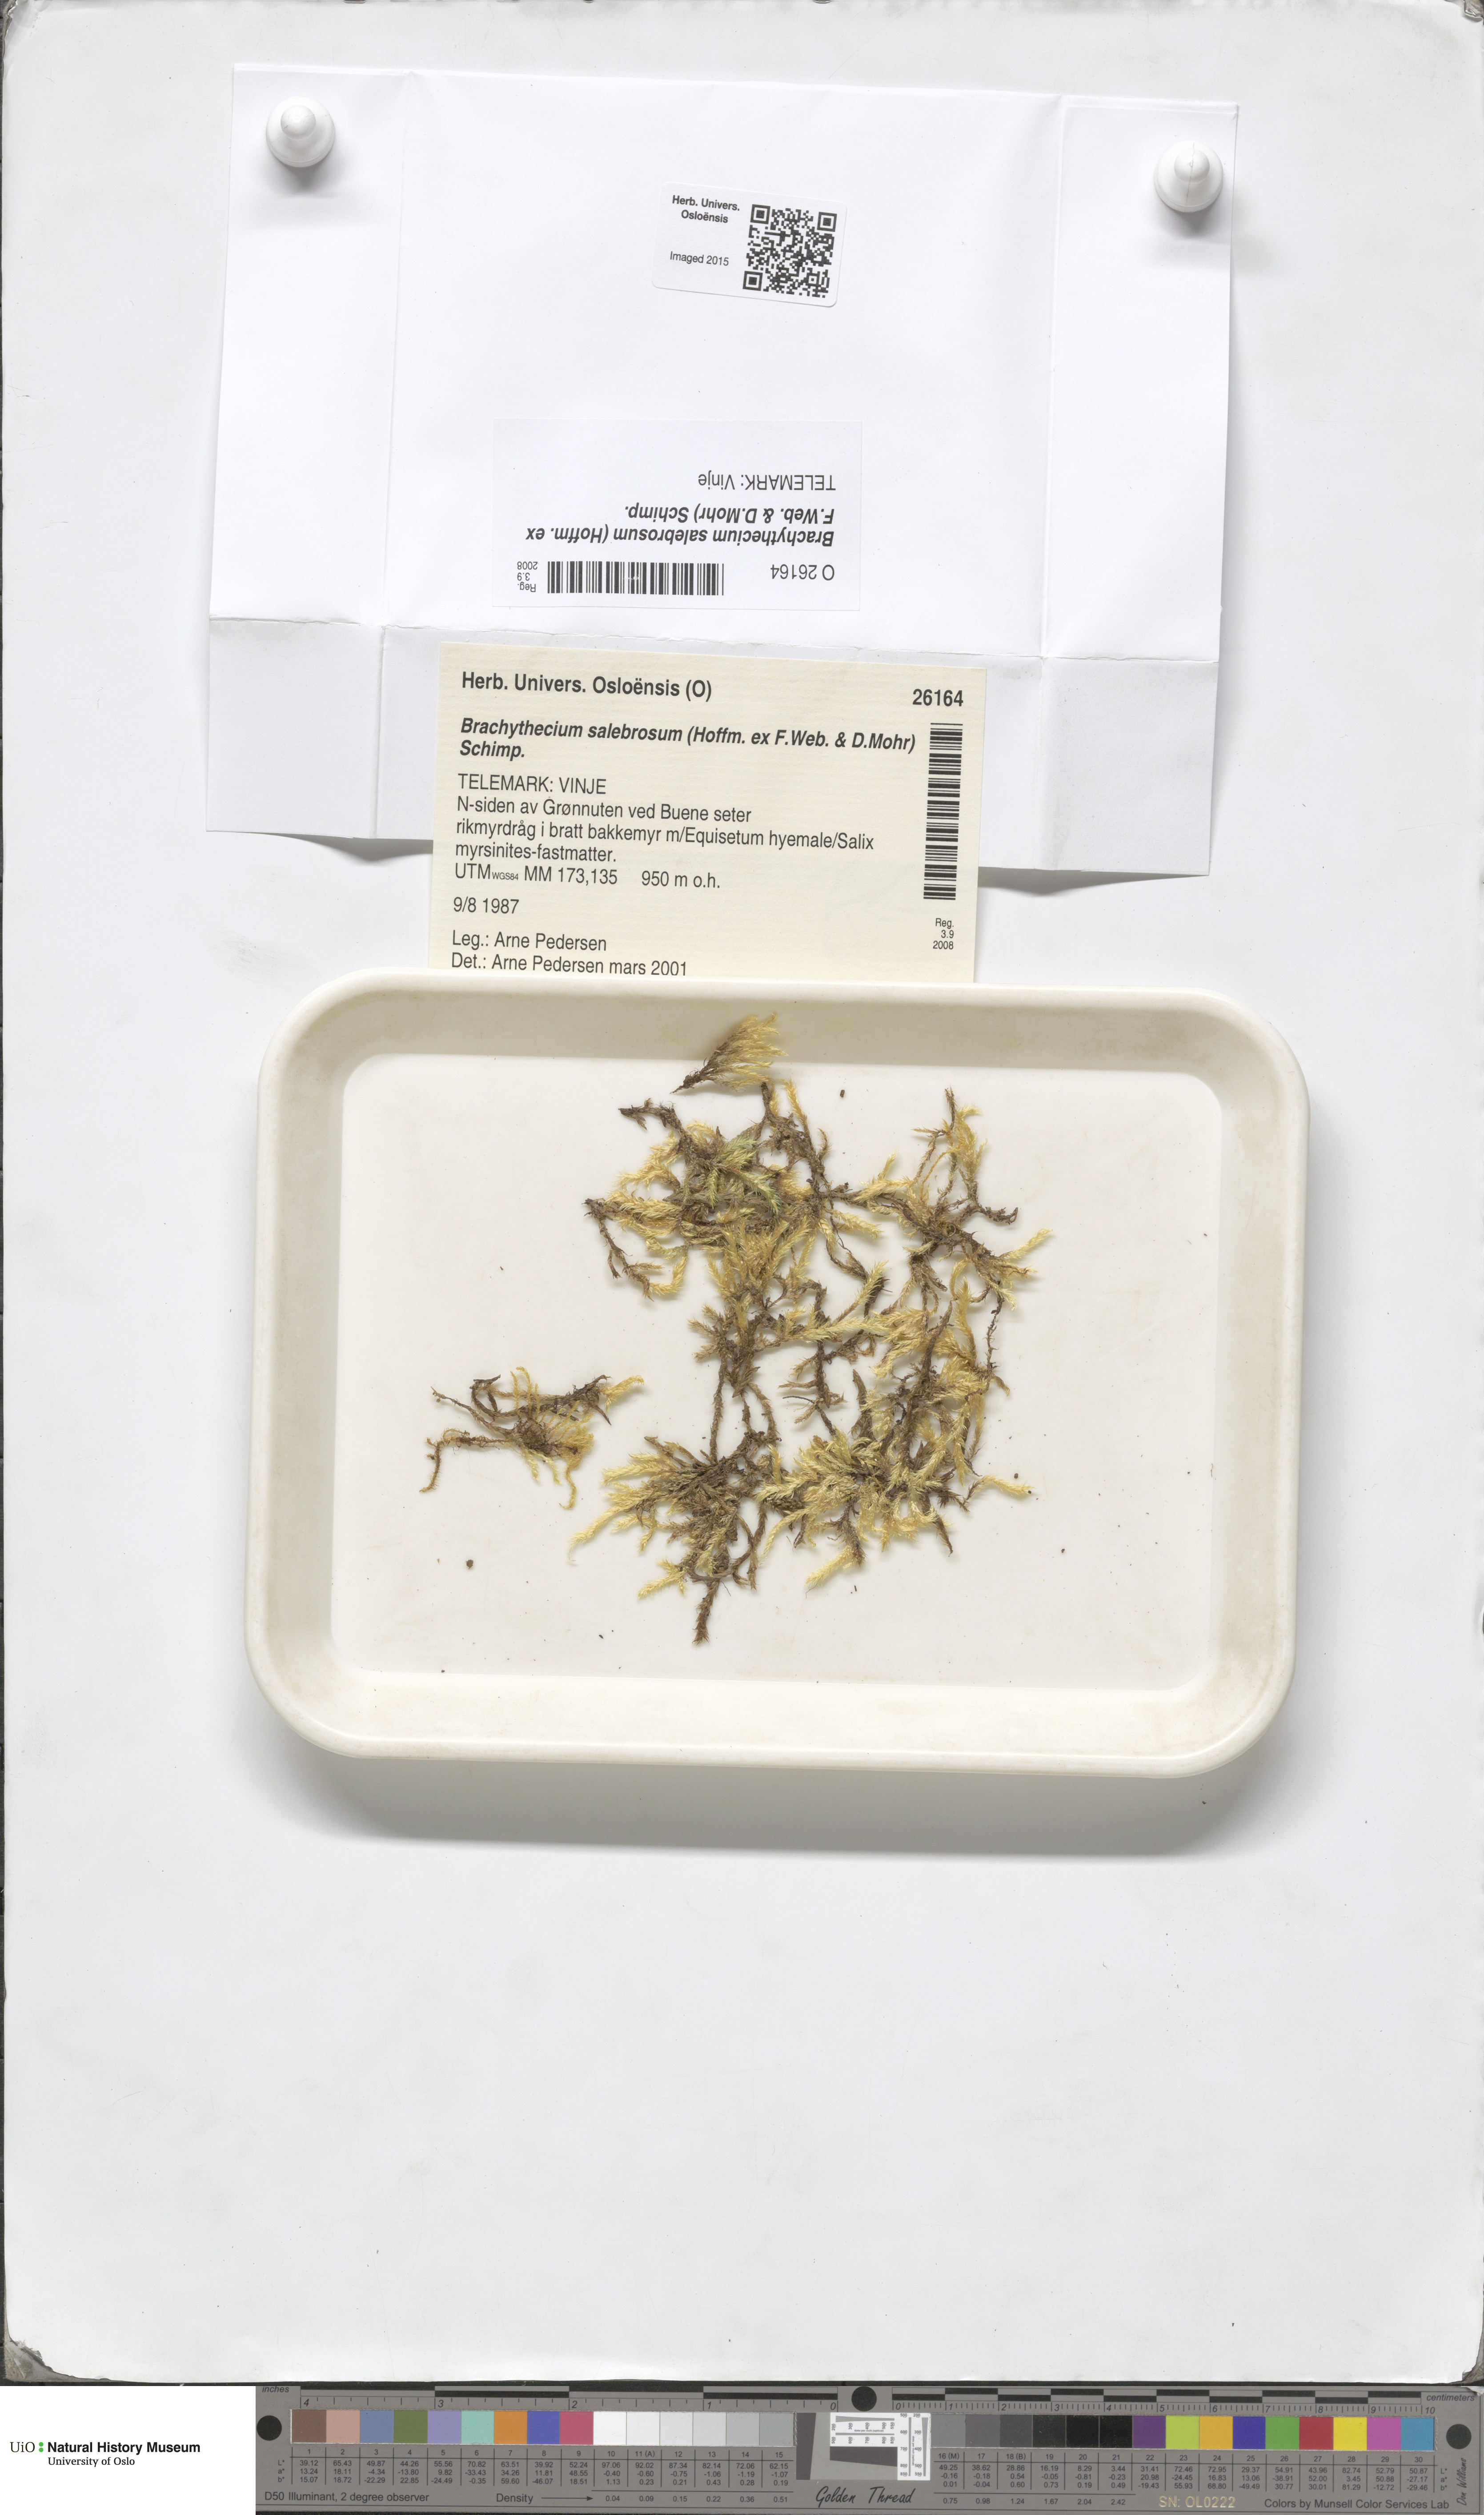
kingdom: Plantae
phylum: Bryophyta
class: Bryopsida
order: Hypnales
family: Brachytheciaceae
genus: Brachythecium
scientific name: Brachythecium salebrosum
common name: Smooth-stalk feather-moss
